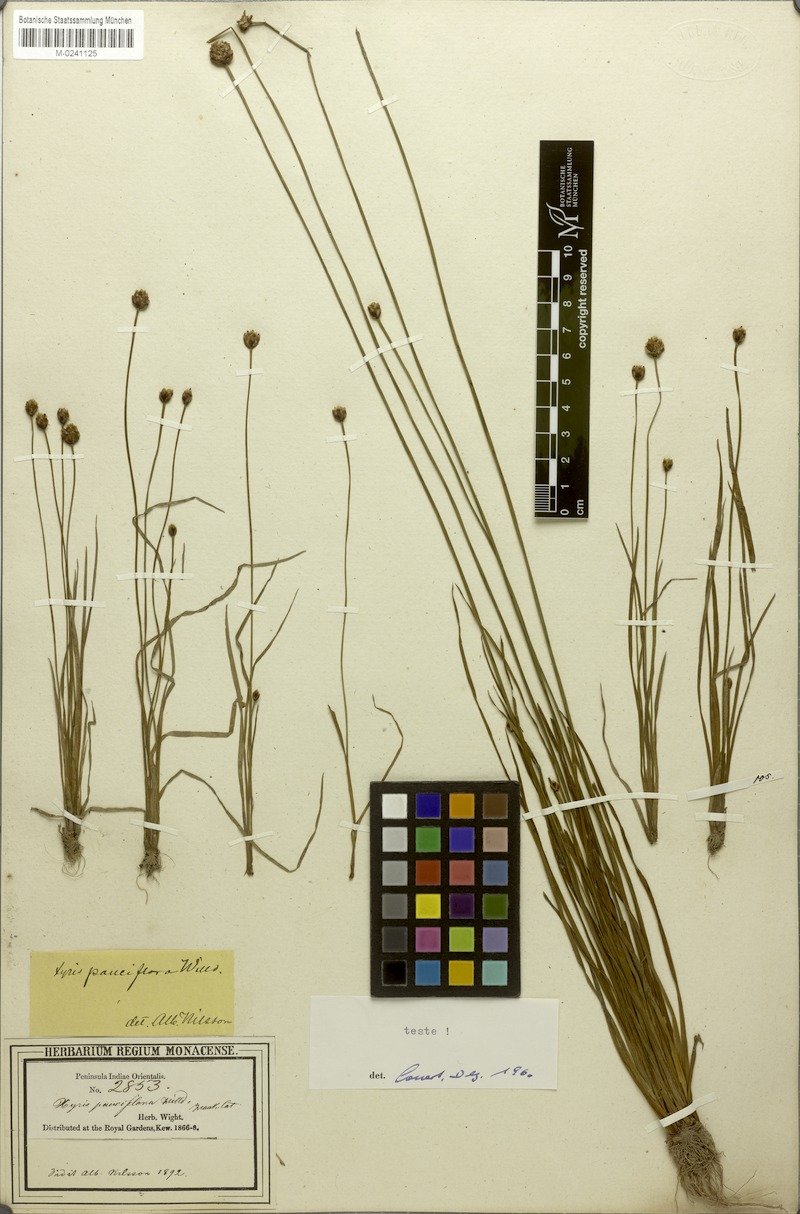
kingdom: Plantae
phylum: Tracheophyta
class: Liliopsida
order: Poales
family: Xyridaceae
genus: Xyris
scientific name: Xyris pauciflora
